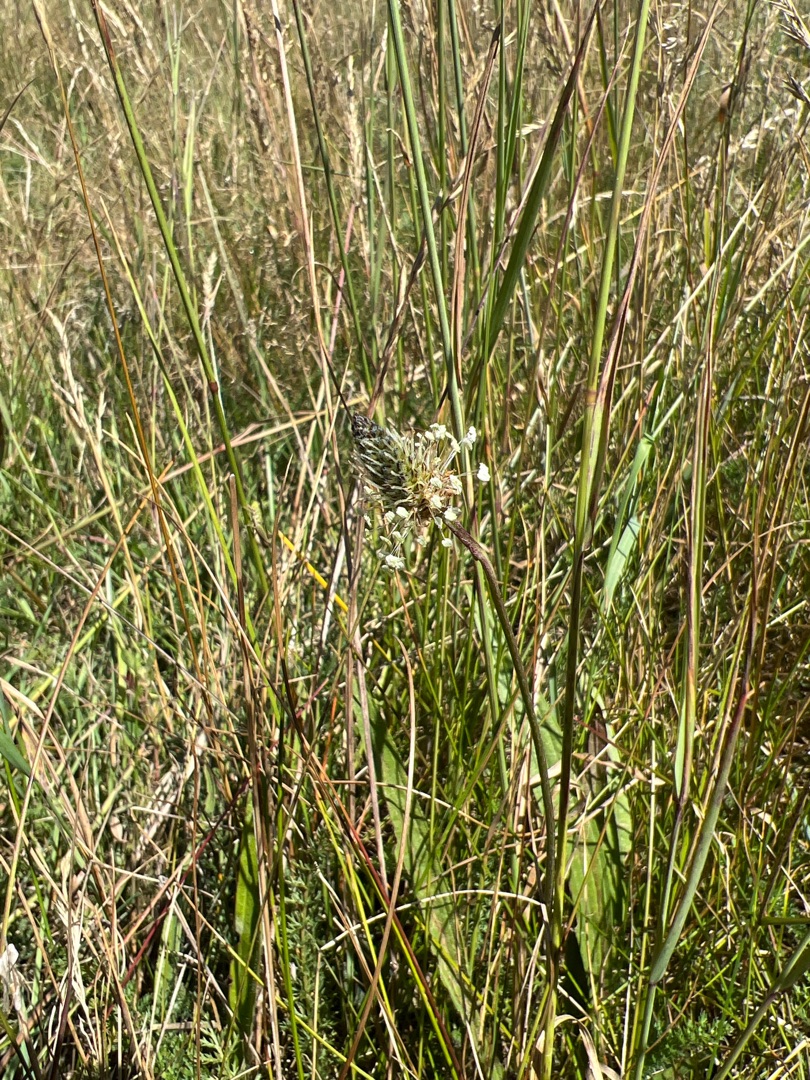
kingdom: Plantae
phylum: Tracheophyta
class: Magnoliopsida
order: Lamiales
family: Plantaginaceae
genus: Plantago
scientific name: Plantago lanceolata
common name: Lancet-vejbred
